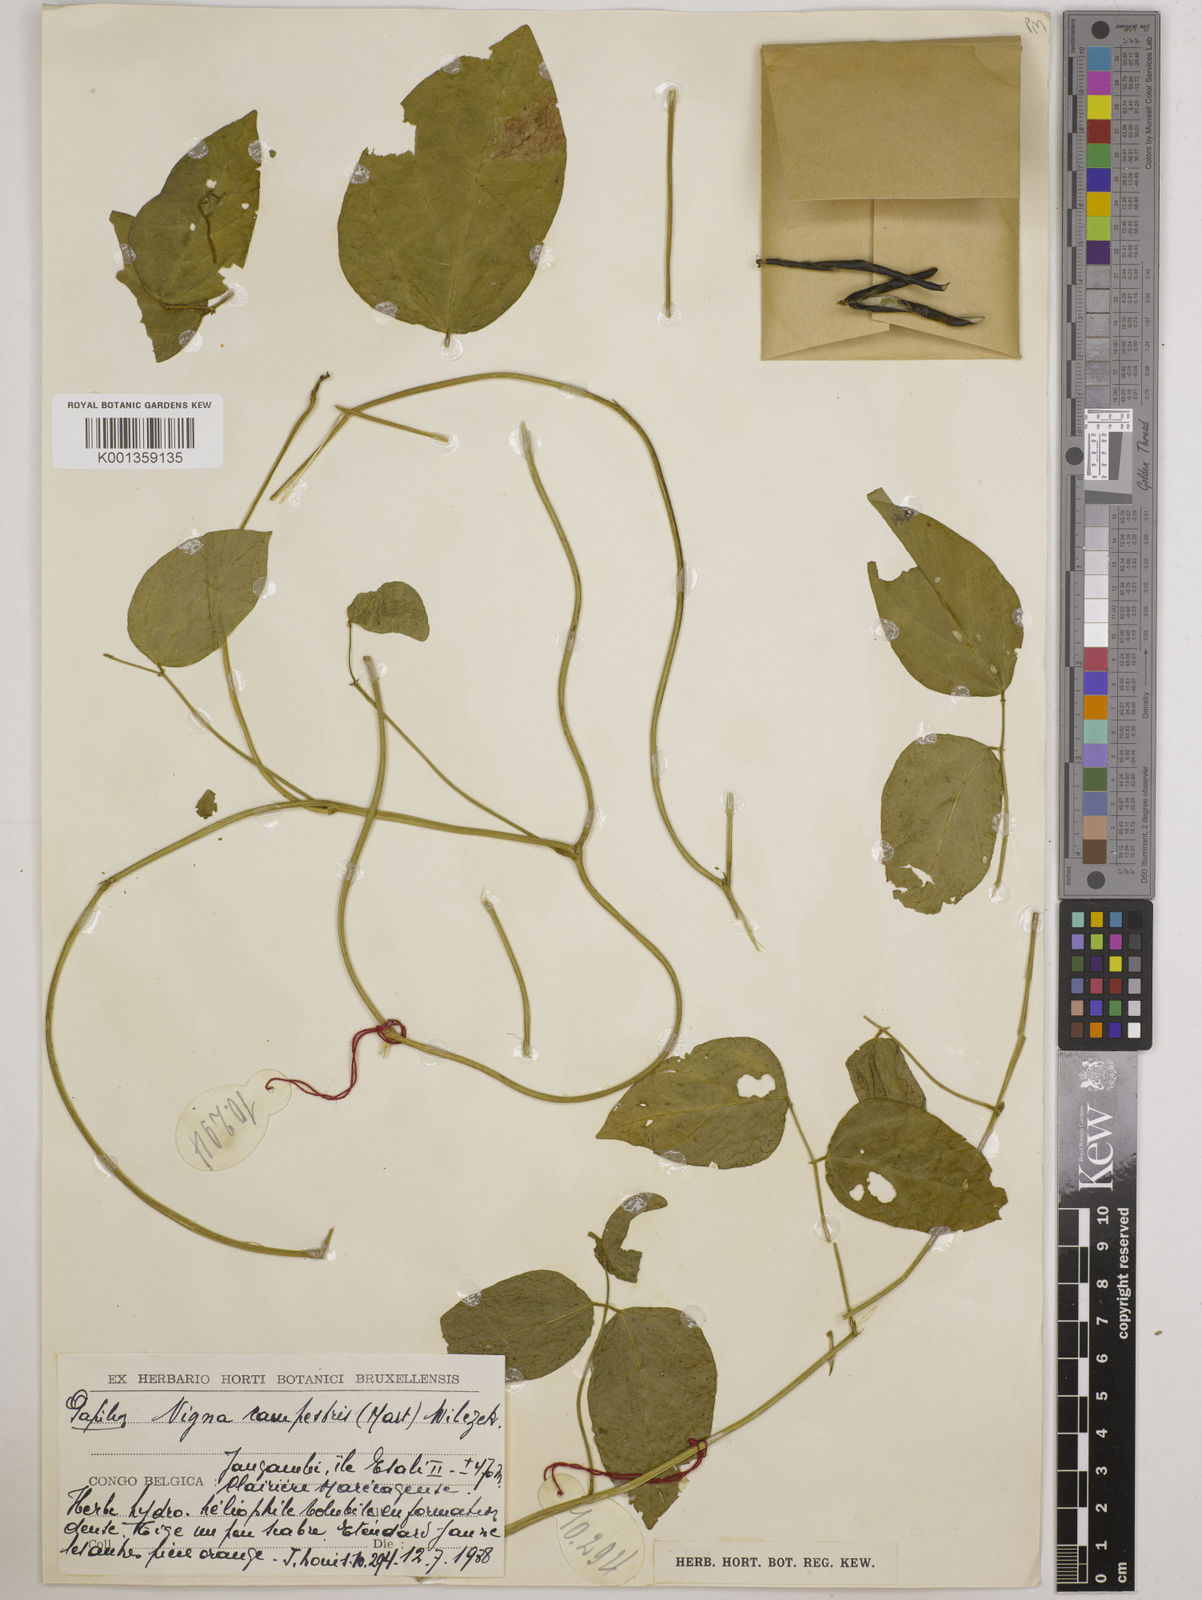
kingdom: Plantae
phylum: Tracheophyta
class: Magnoliopsida
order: Fabales
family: Fabaceae
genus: Vigna
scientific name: Vigna juruana
